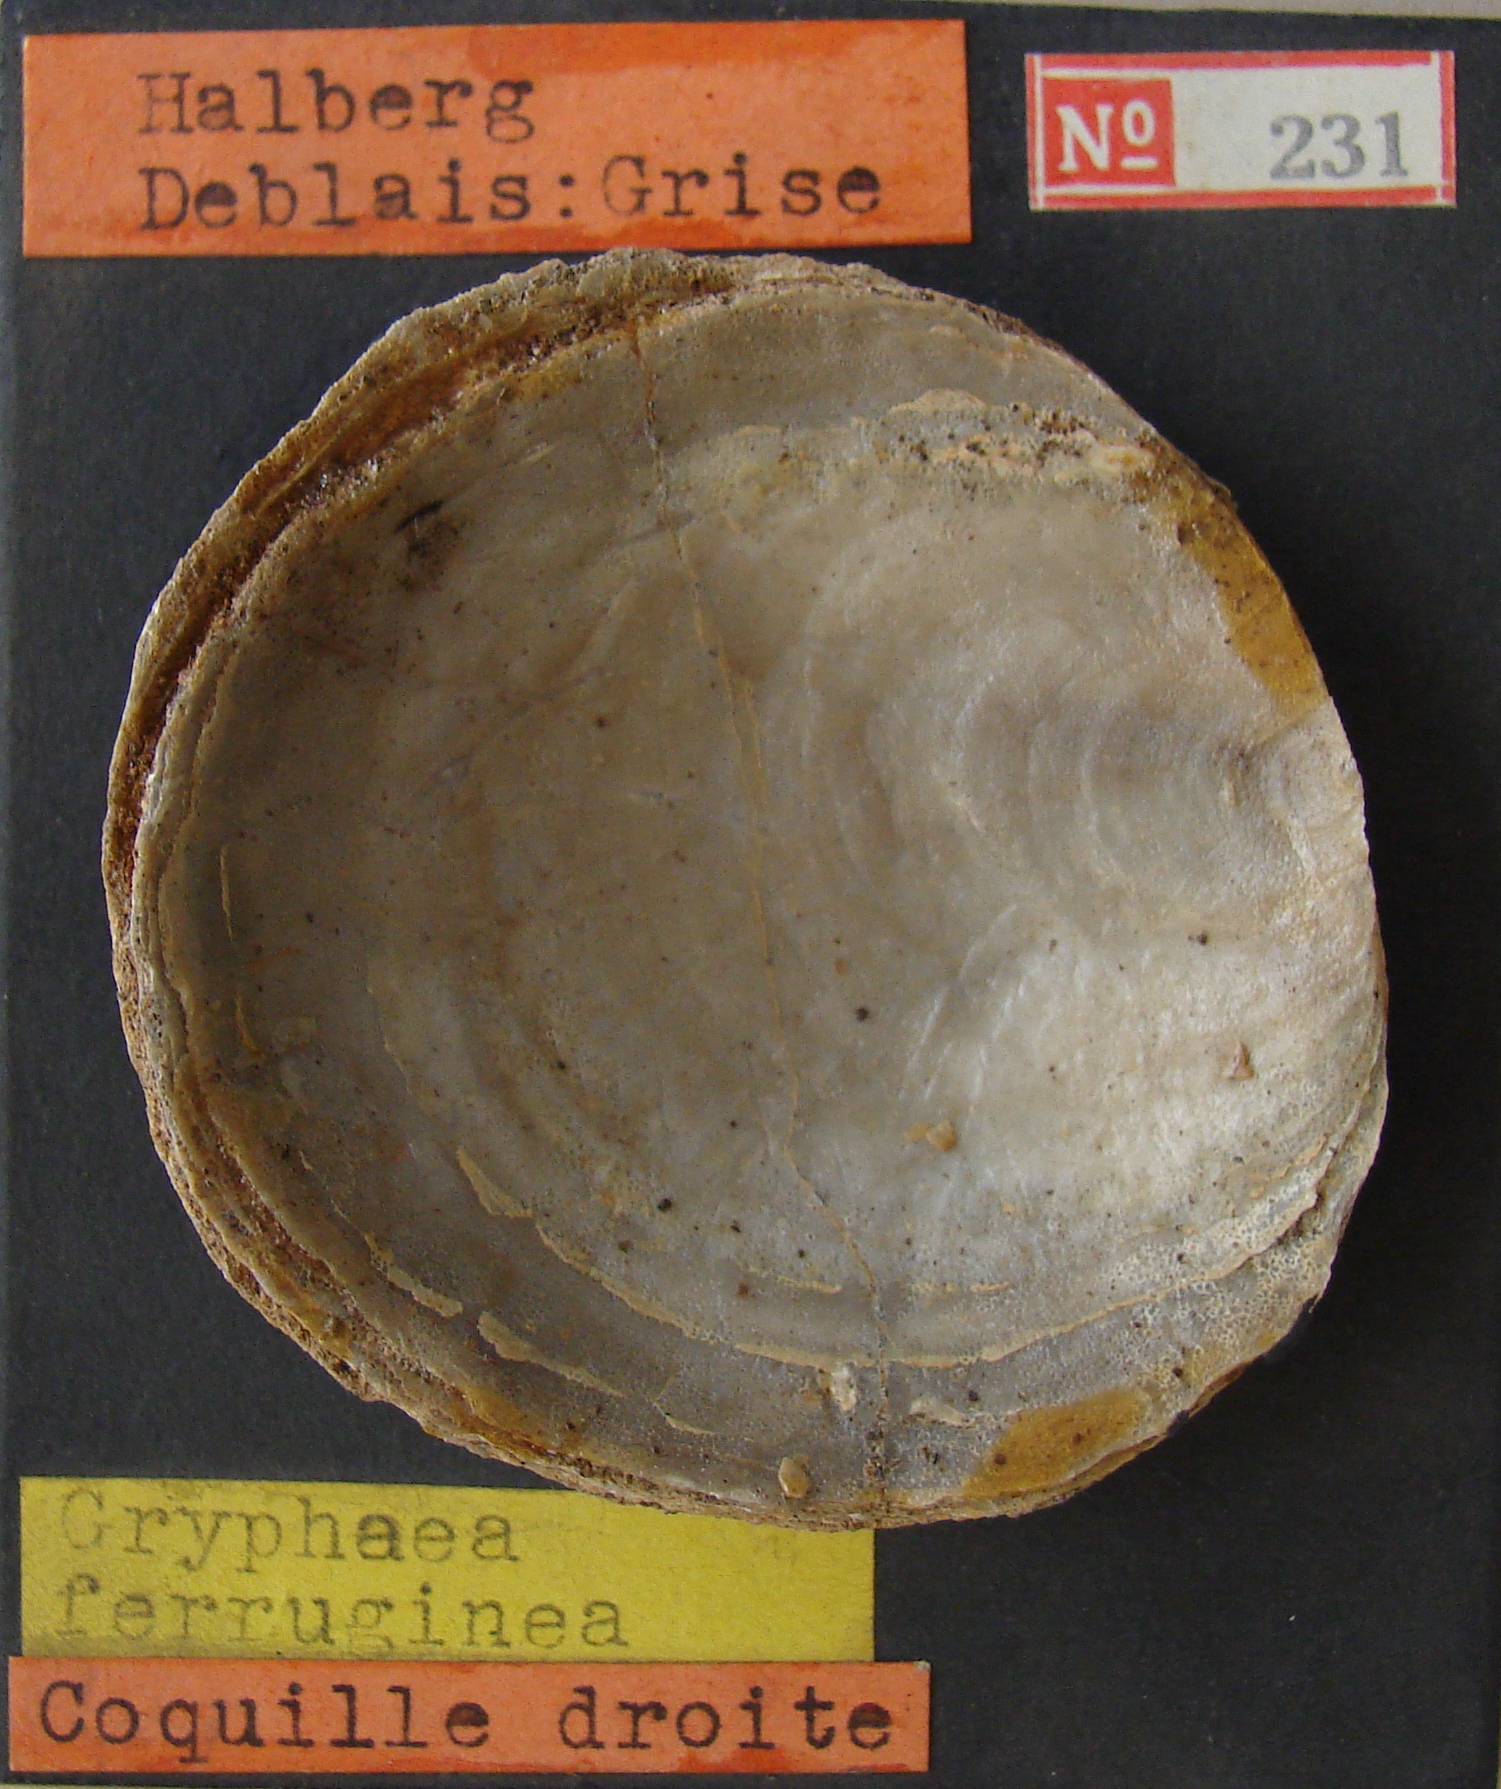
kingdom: Animalia
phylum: Mollusca
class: Bivalvia
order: Ostreida
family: Gryphaeidae
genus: Gryphaea
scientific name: Gryphaea
